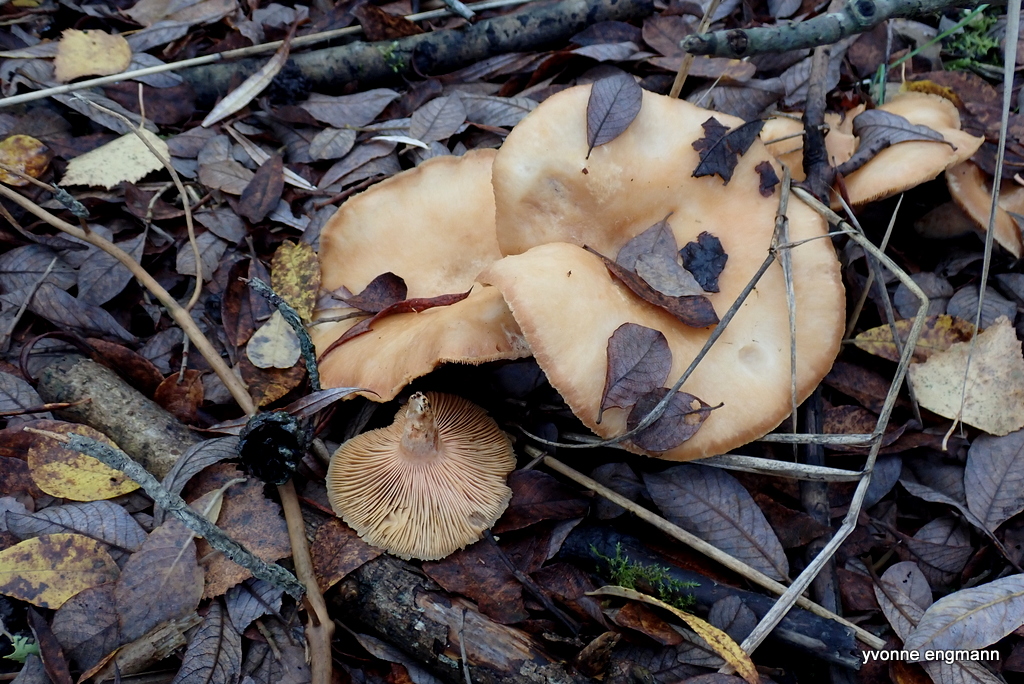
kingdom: Fungi
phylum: Basidiomycota
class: Agaricomycetes
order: Russulales
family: Russulaceae
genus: Lactarius
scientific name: Lactarius pubescens
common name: dunet mælkehat
